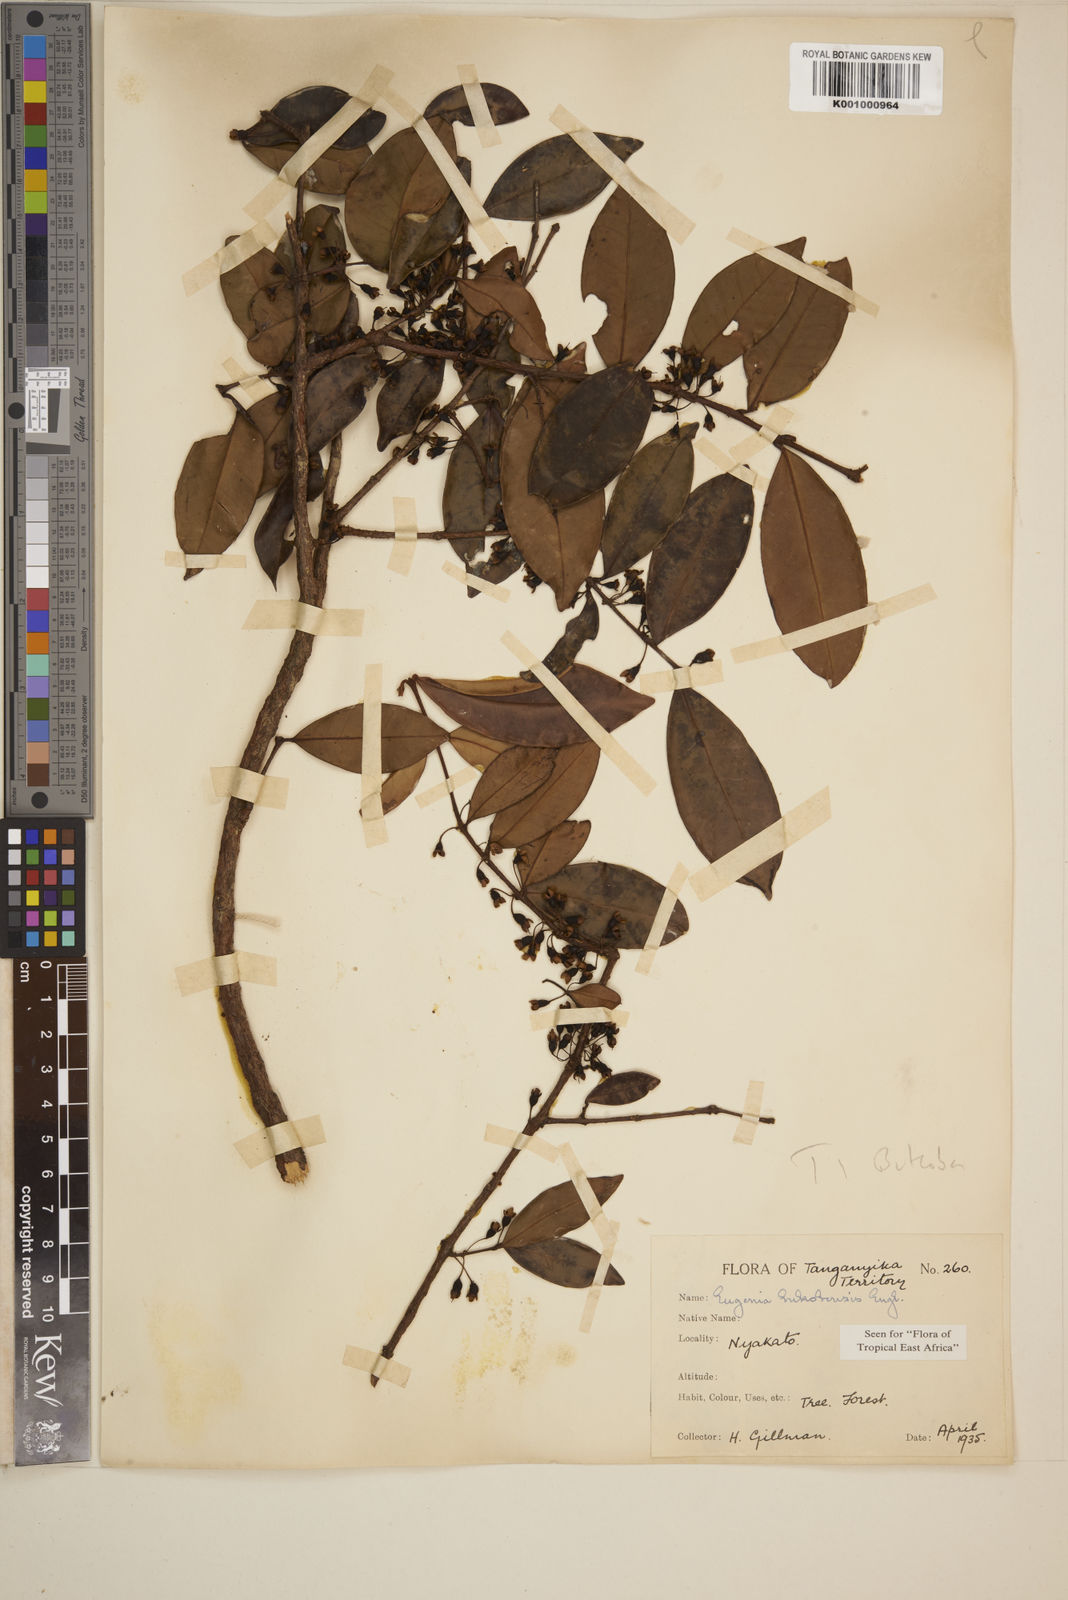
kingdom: Plantae
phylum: Tracheophyta
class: Magnoliopsida
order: Myrtales
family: Myrtaceae
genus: Eugenia
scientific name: Eugenia bukobensis
